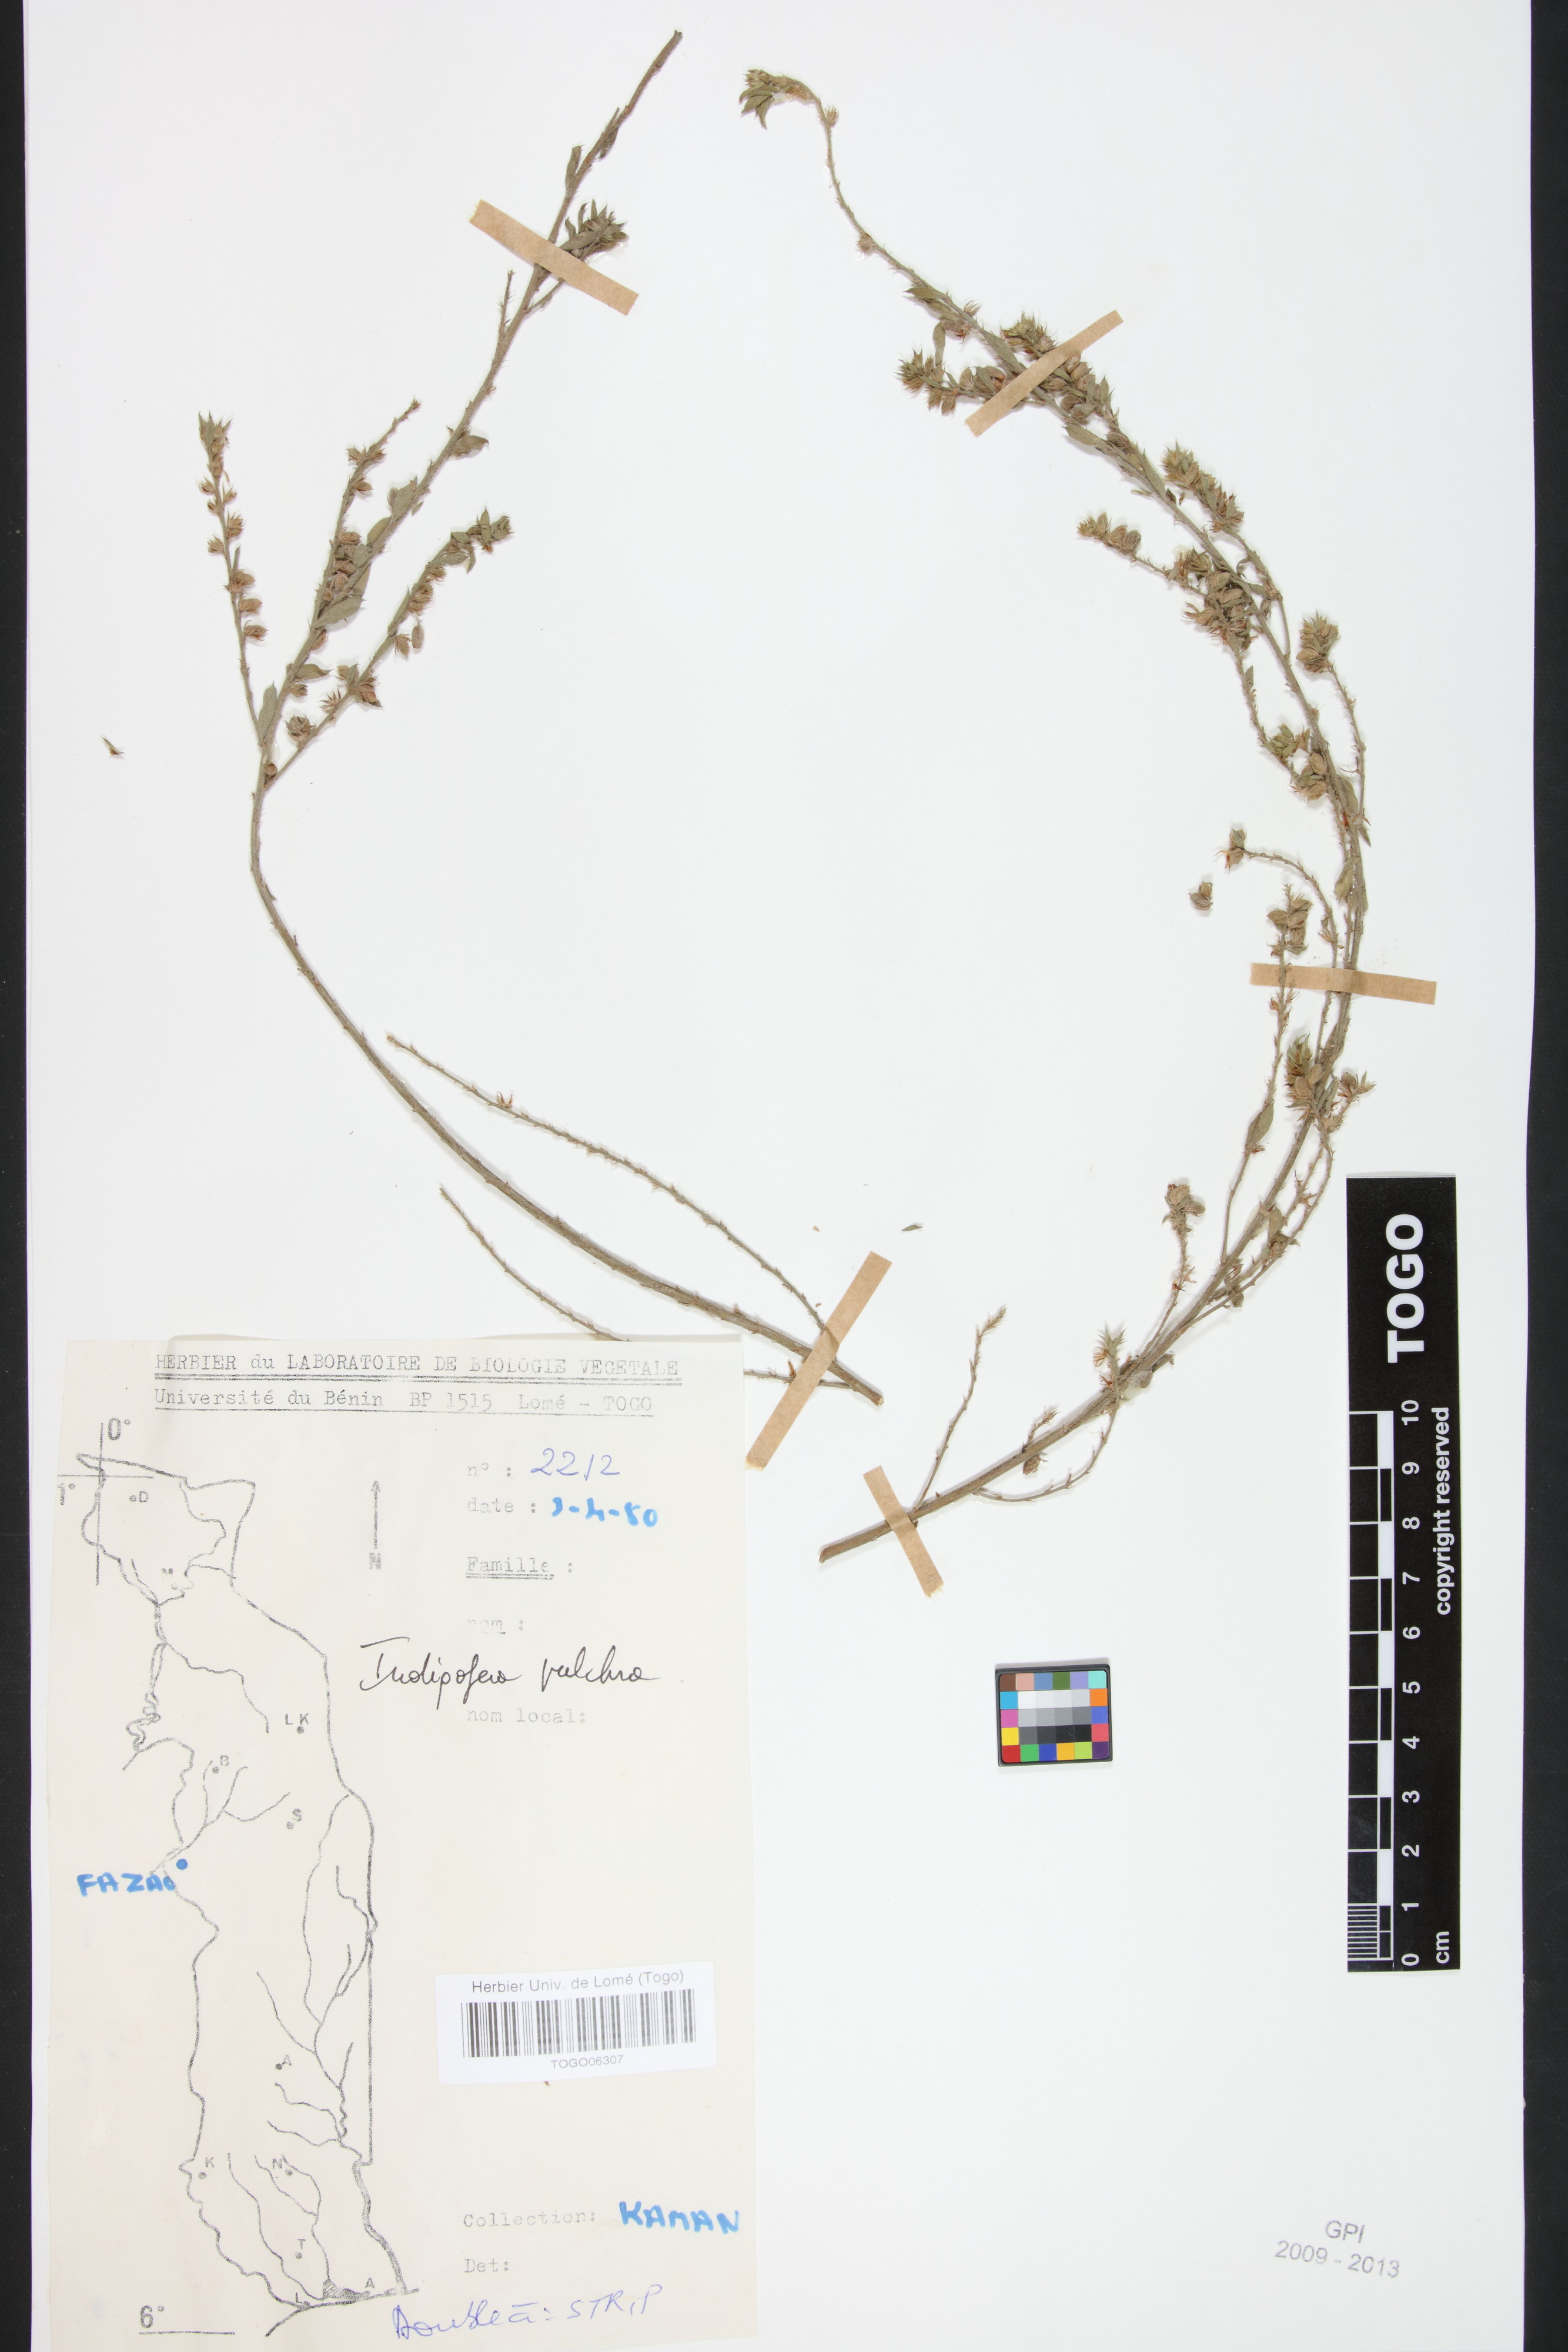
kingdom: Plantae
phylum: Tracheophyta
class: Magnoliopsida
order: Fabales
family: Fabaceae
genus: Indigofera
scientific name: Indigofera pulchra
